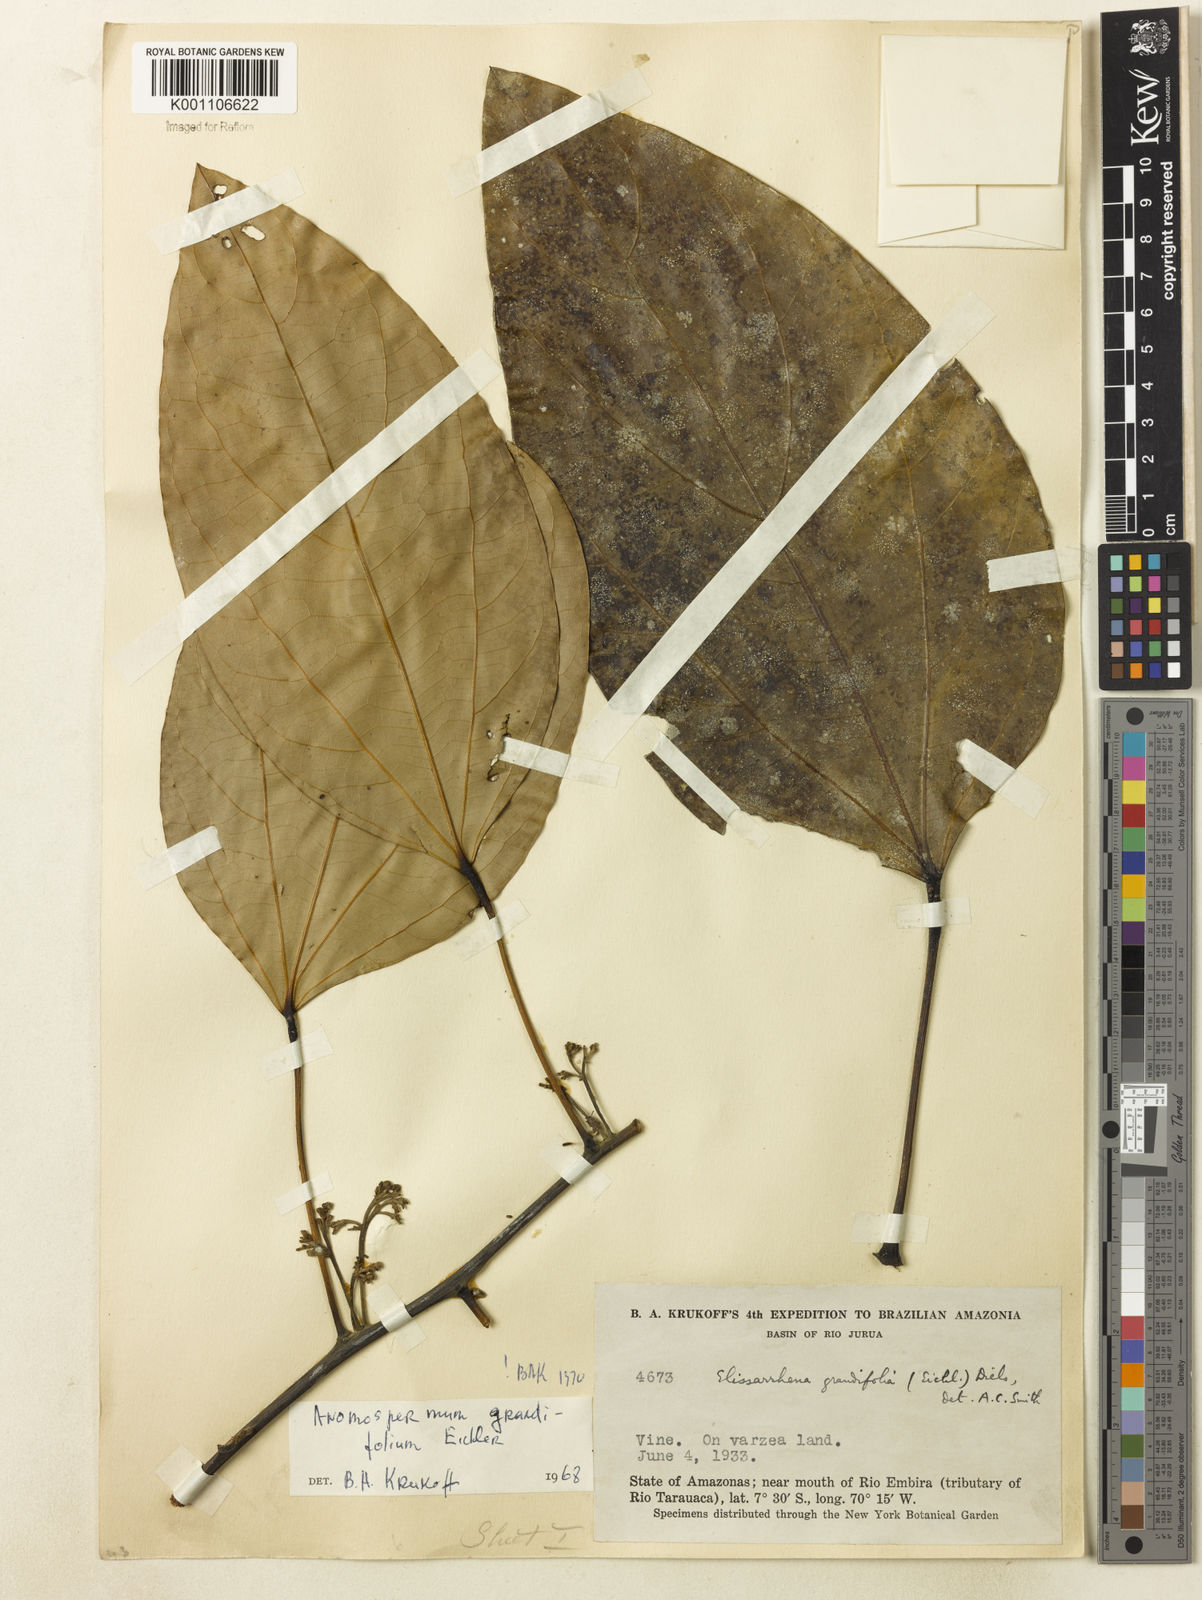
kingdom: Plantae
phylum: Tracheophyta
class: Magnoliopsida
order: Ranunculales
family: Menispermaceae
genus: Elissarrhena
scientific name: Elissarrhena longipes
